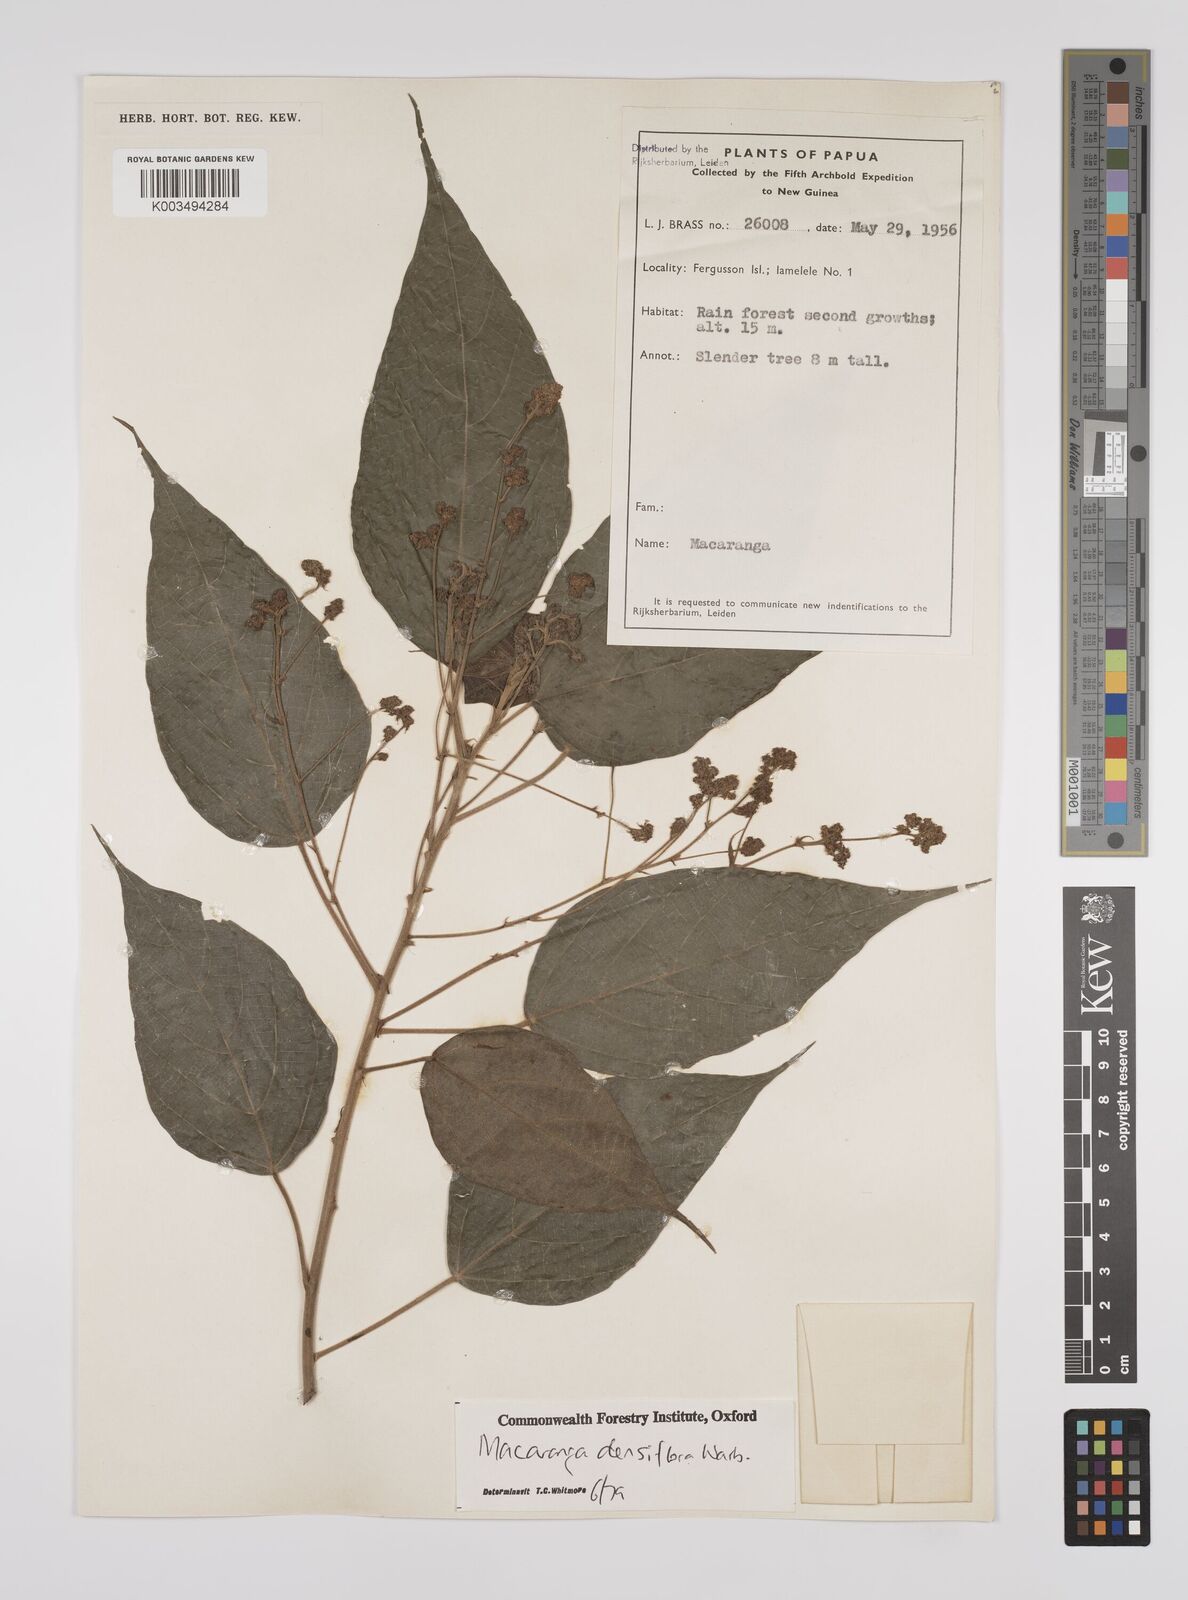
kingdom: Plantae
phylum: Tracheophyta
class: Magnoliopsida
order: Malpighiales
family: Euphorbiaceae
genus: Macaranga
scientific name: Macaranga densiflora
